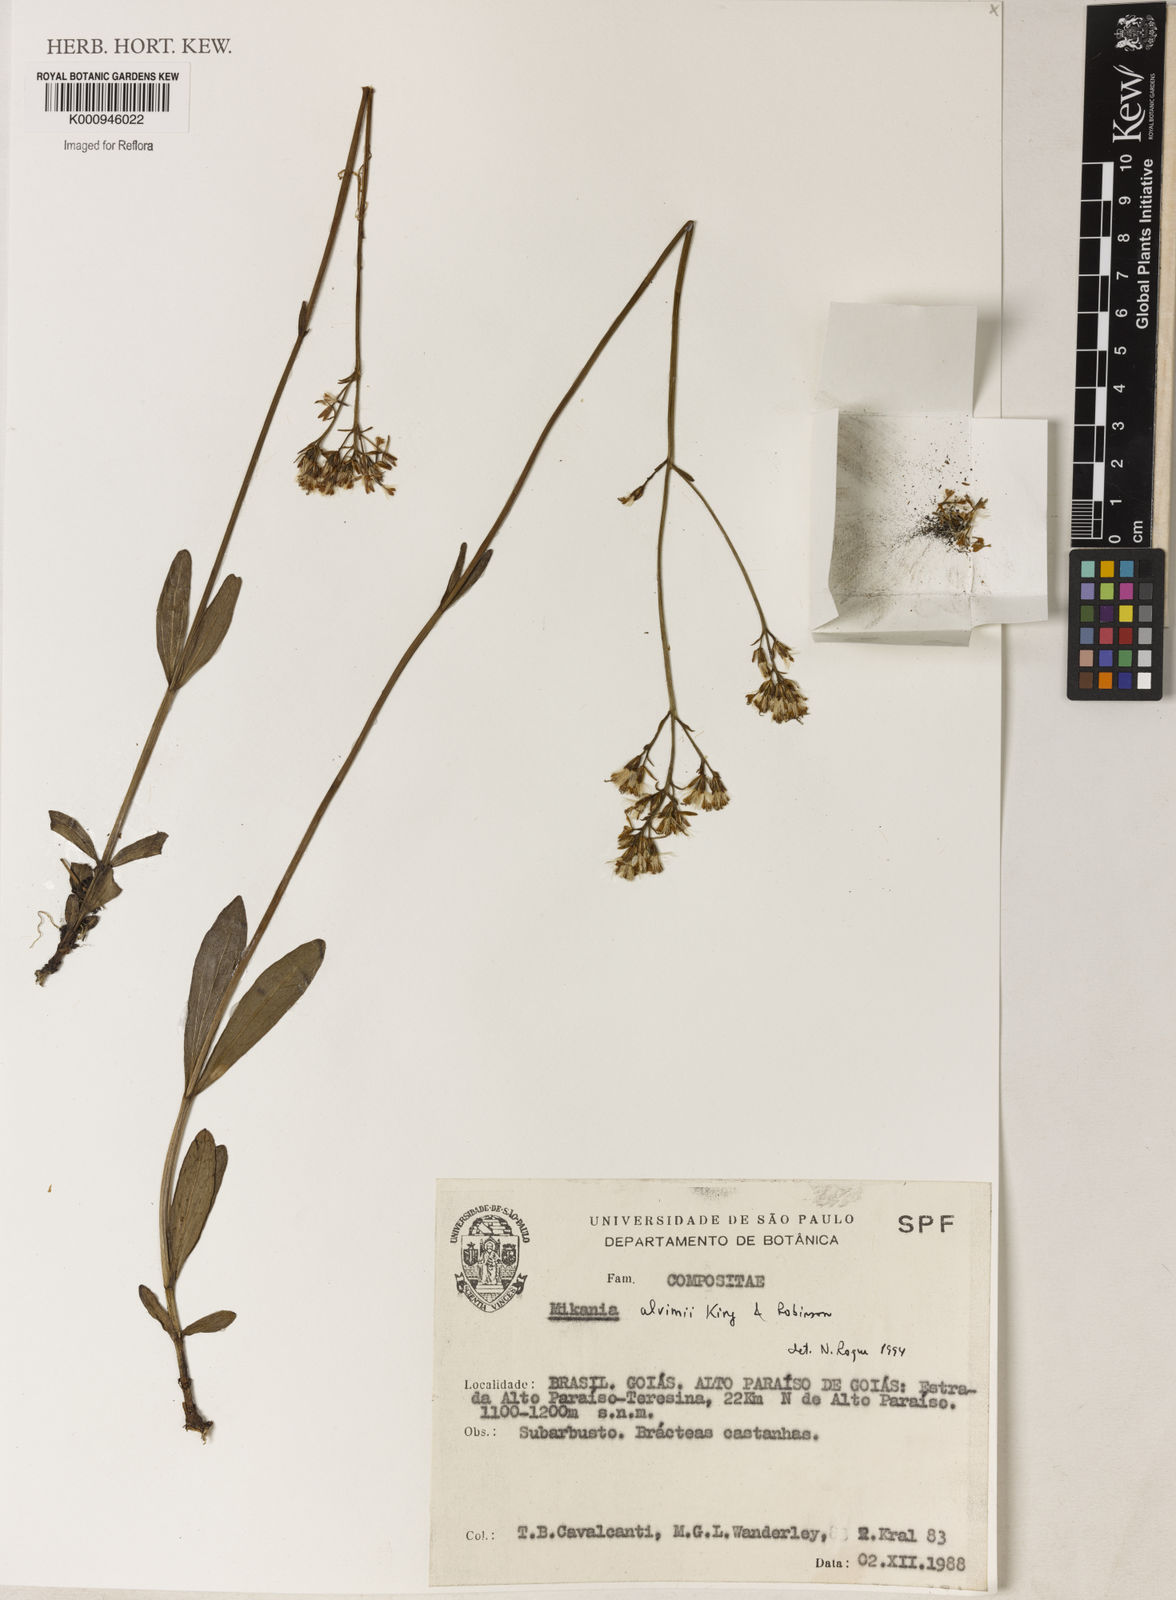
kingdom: Plantae
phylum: Tracheophyta
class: Magnoliopsida
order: Asterales
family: Asteraceae
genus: Mikania
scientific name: Mikania alvimii
